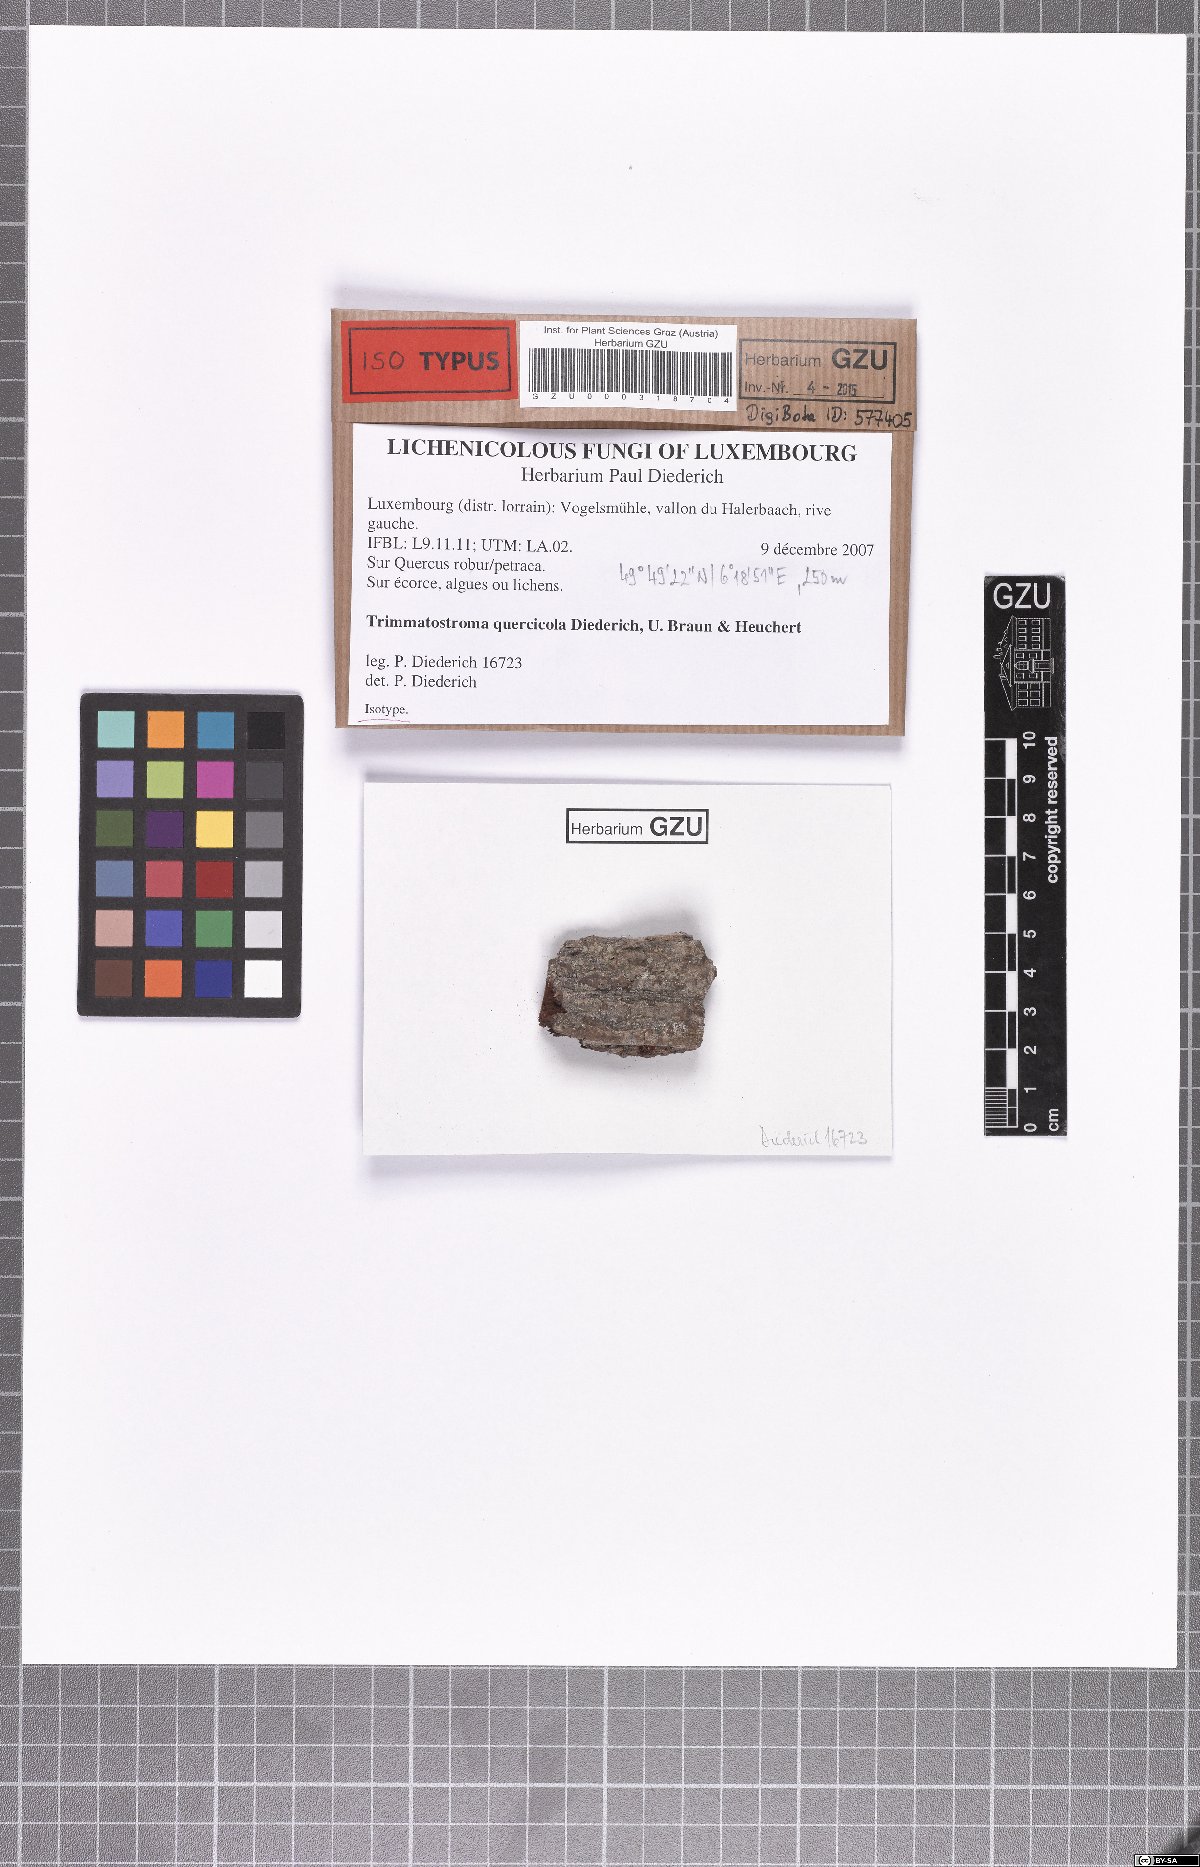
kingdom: Fungi
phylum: Ascomycota
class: Leotiomycetes
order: Helotiales
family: Mollisiaceae
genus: Trimmatostroma
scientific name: Trimmatostroma quercicola
